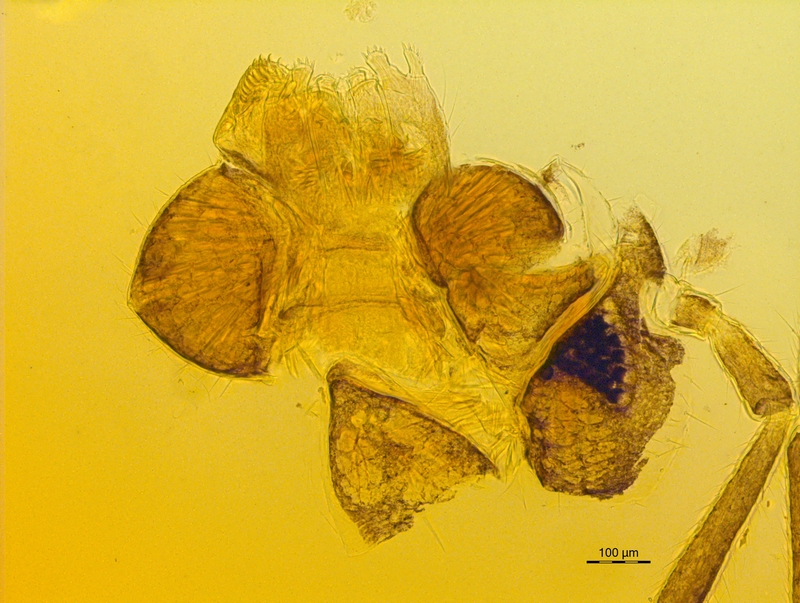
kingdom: Animalia
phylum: Arthropoda
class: Diplopoda
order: Chordeumatida
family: Craspedosomatidae
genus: Euceratosoma
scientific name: Euceratosoma elaphron
